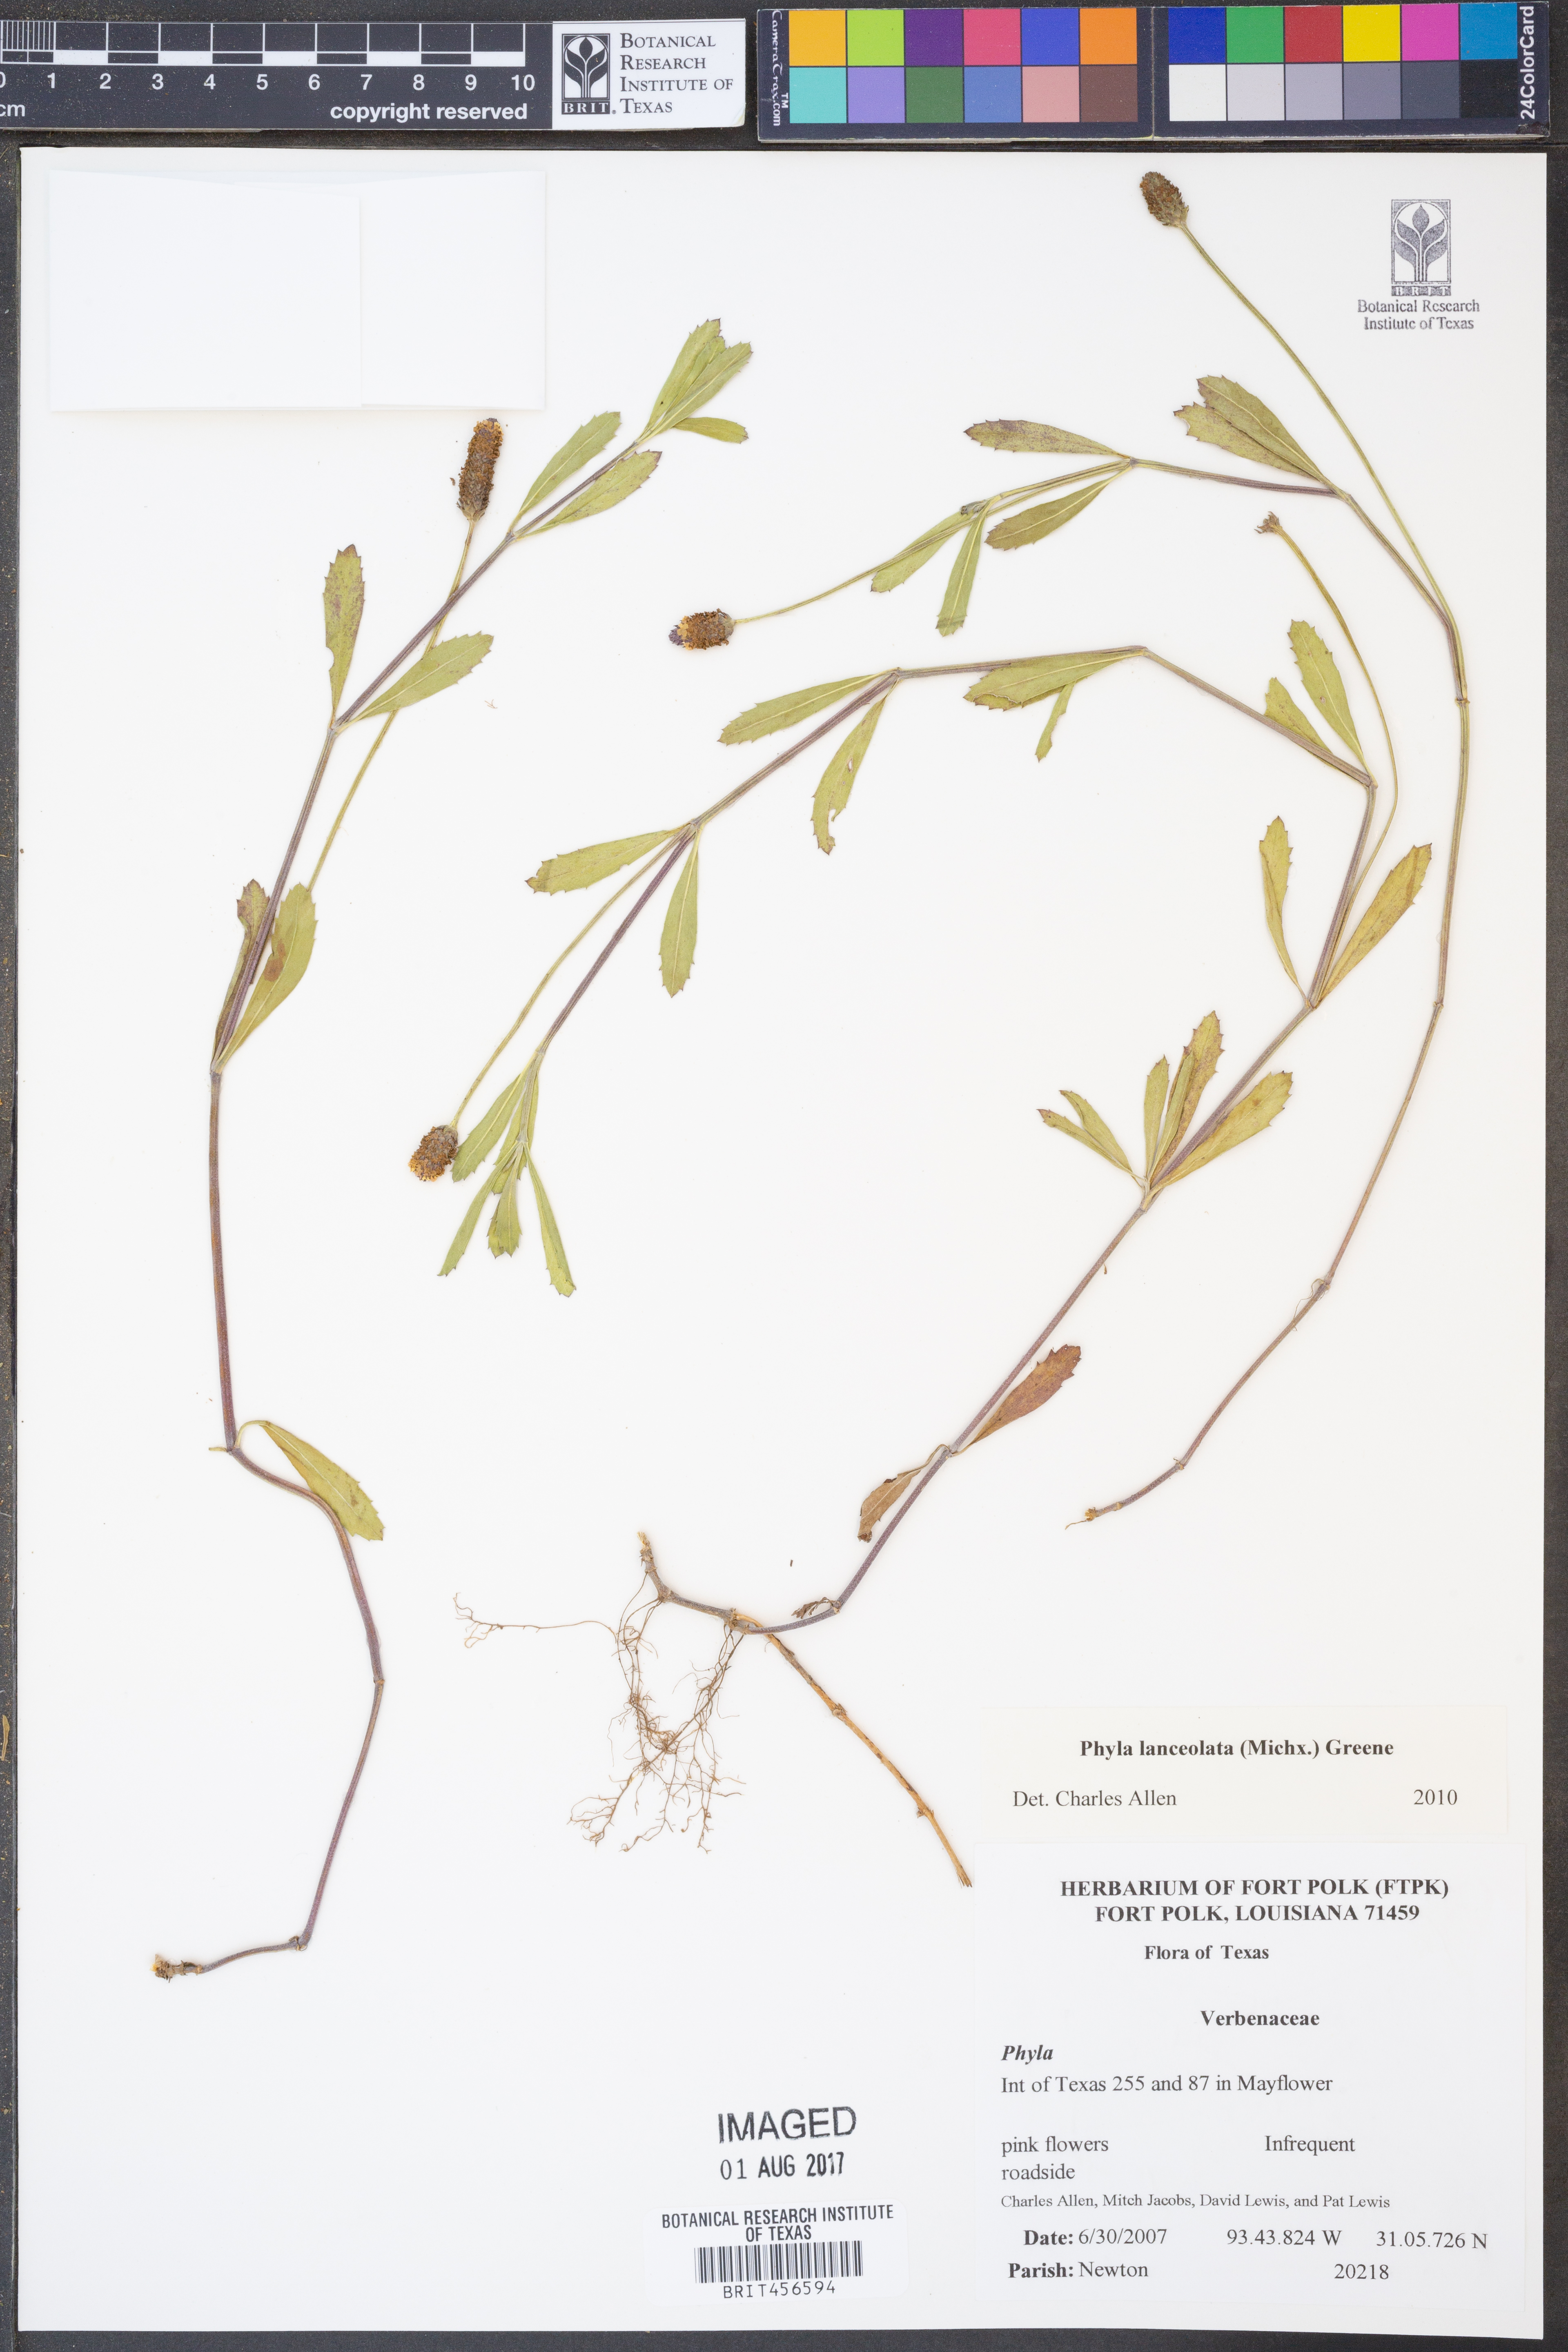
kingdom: Plantae
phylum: Tracheophyta
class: Magnoliopsida
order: Lamiales
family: Verbenaceae
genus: Phyla
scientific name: Phyla lanceolata
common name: Northern fogfruit
